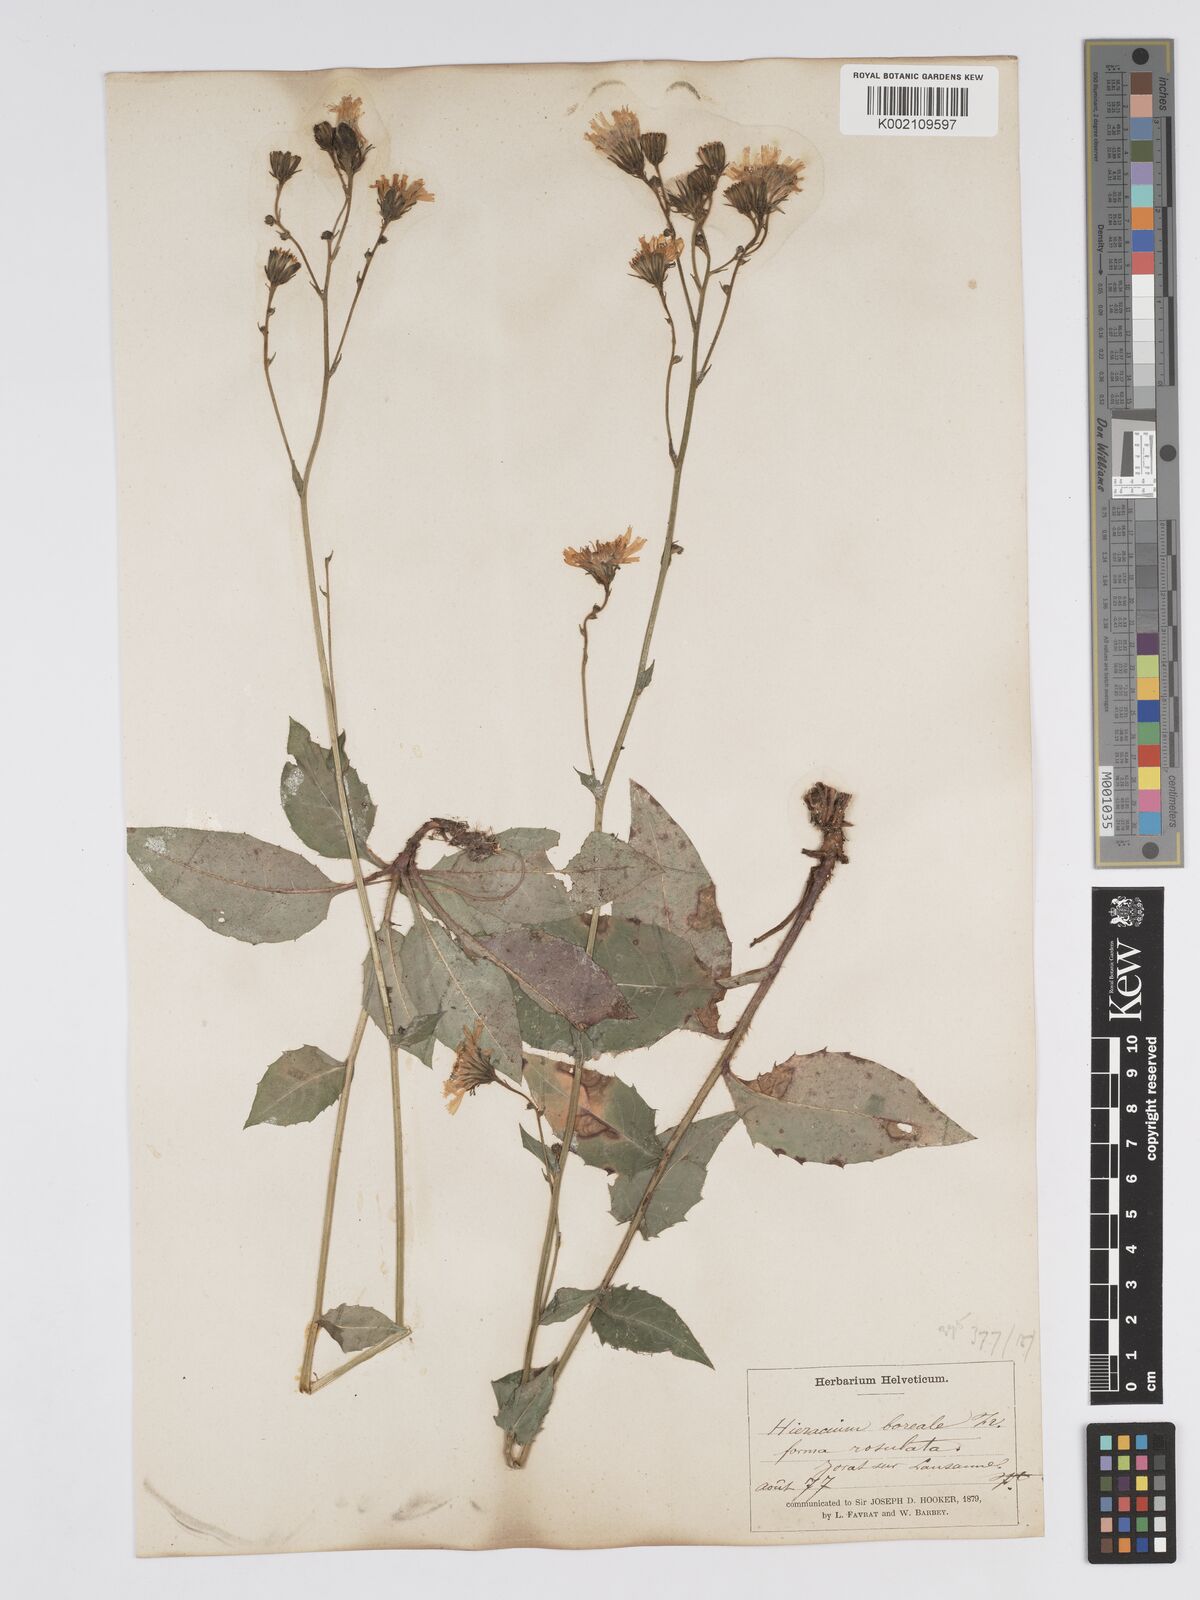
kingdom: Plantae
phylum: Tracheophyta
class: Magnoliopsida
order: Asterales
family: Asteraceae
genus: Hieracium
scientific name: Hieracium racemosum
